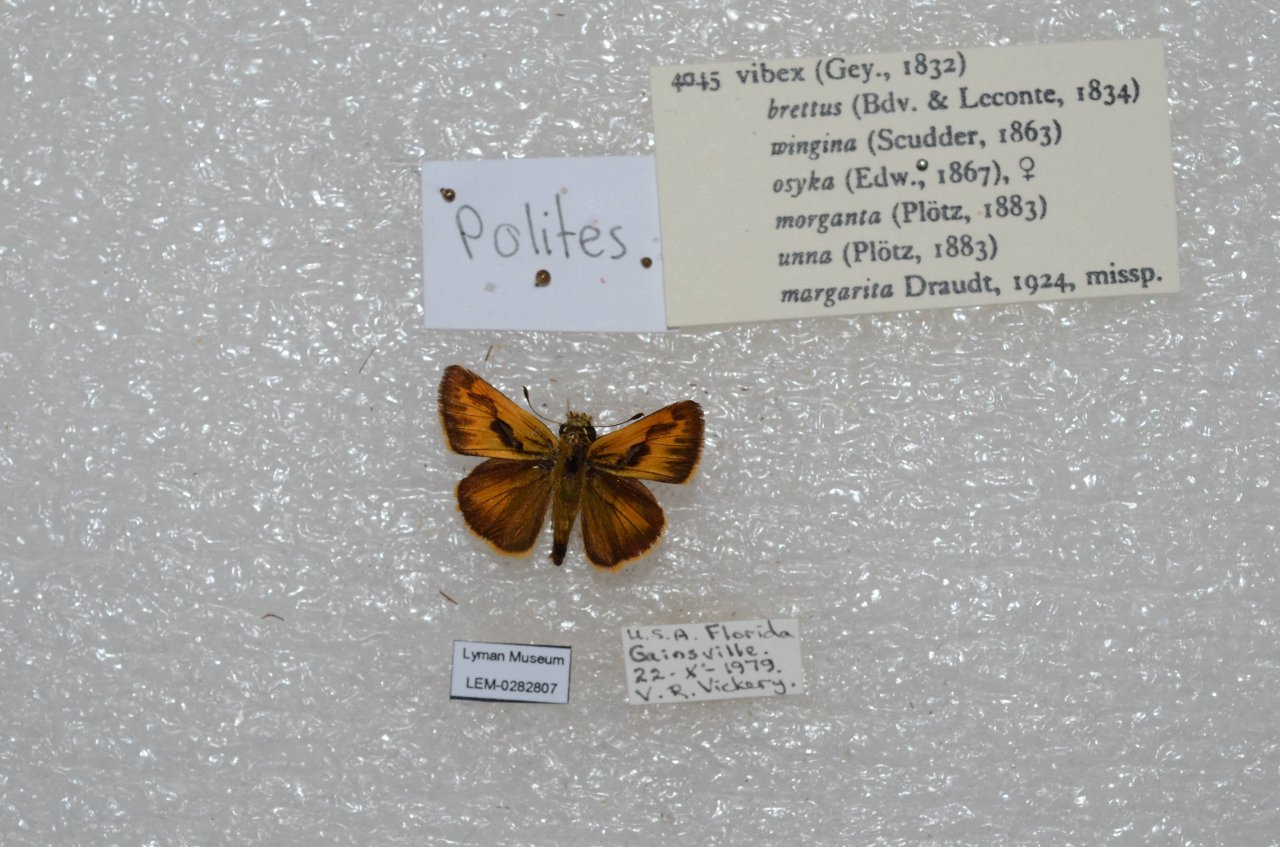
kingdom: Animalia
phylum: Arthropoda
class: Insecta
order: Lepidoptera
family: Hesperiidae
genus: Polites
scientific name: Polites vibex
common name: Whirlabout
